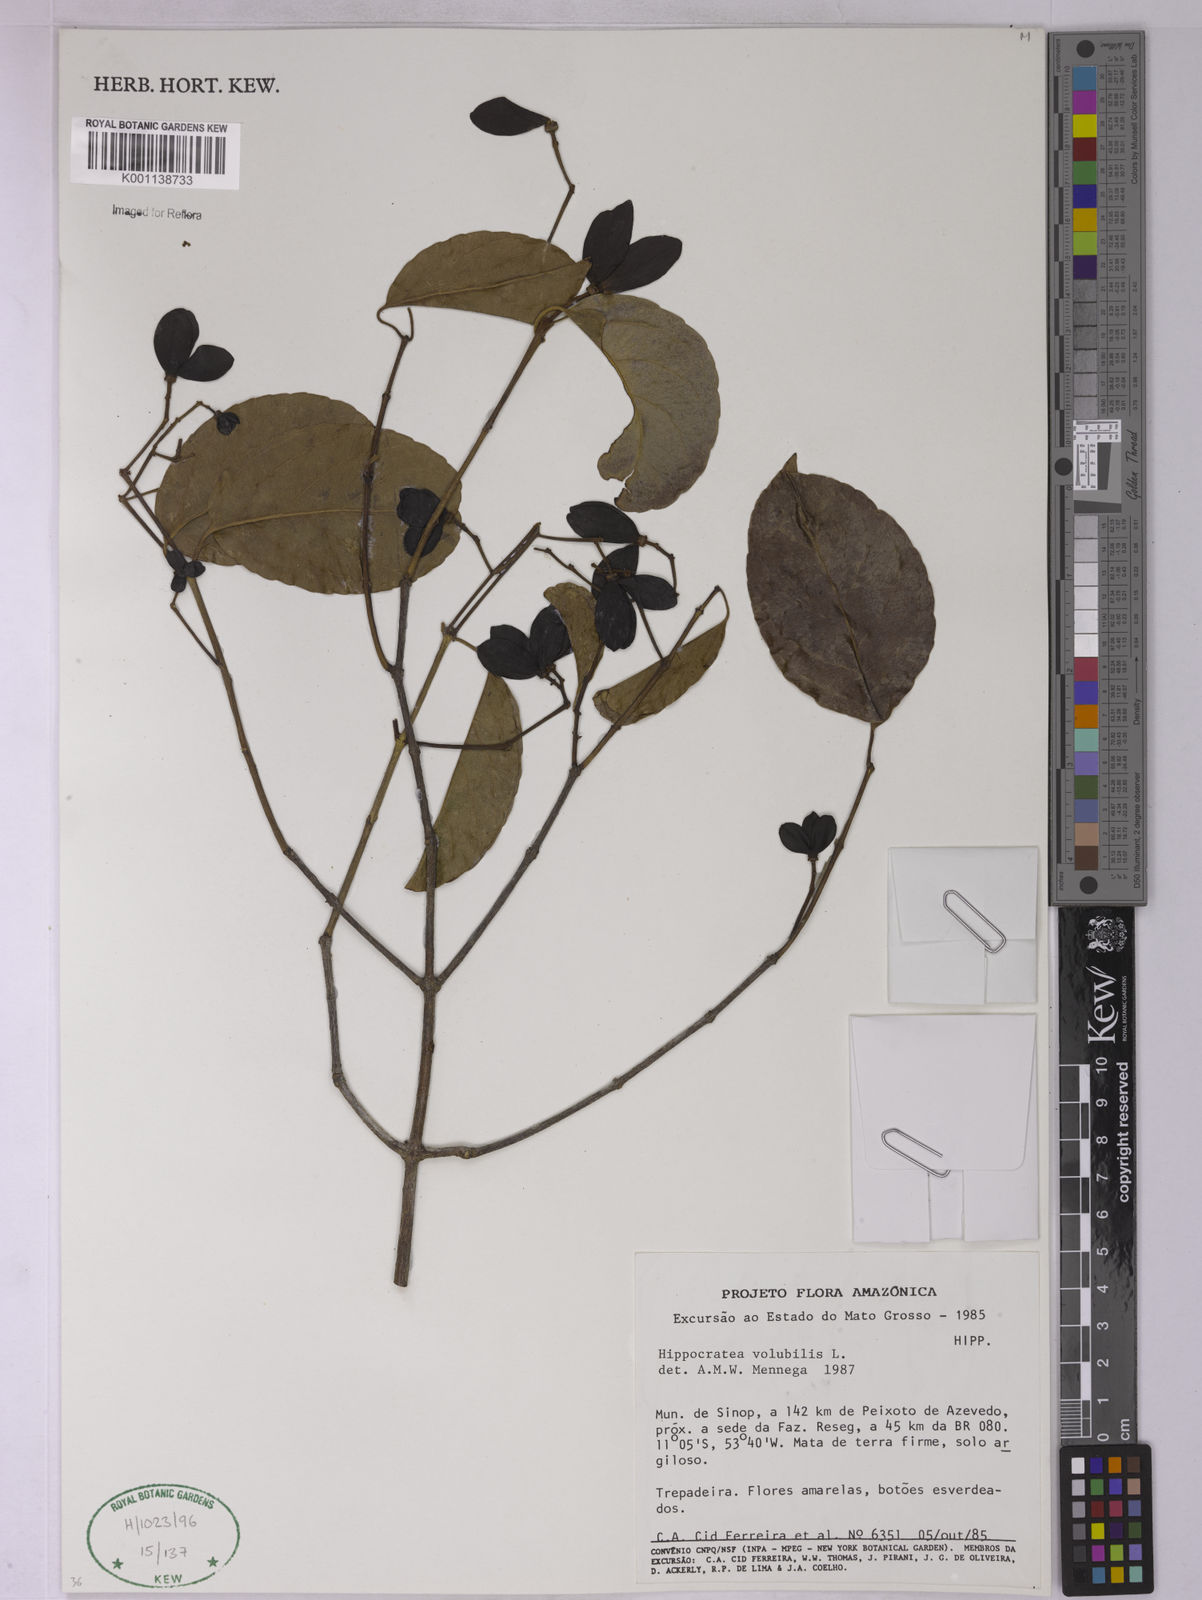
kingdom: Plantae
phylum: Tracheophyta
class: Magnoliopsida
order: Celastrales
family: Celastraceae
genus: Hippocratea
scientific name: Hippocratea volubilis
